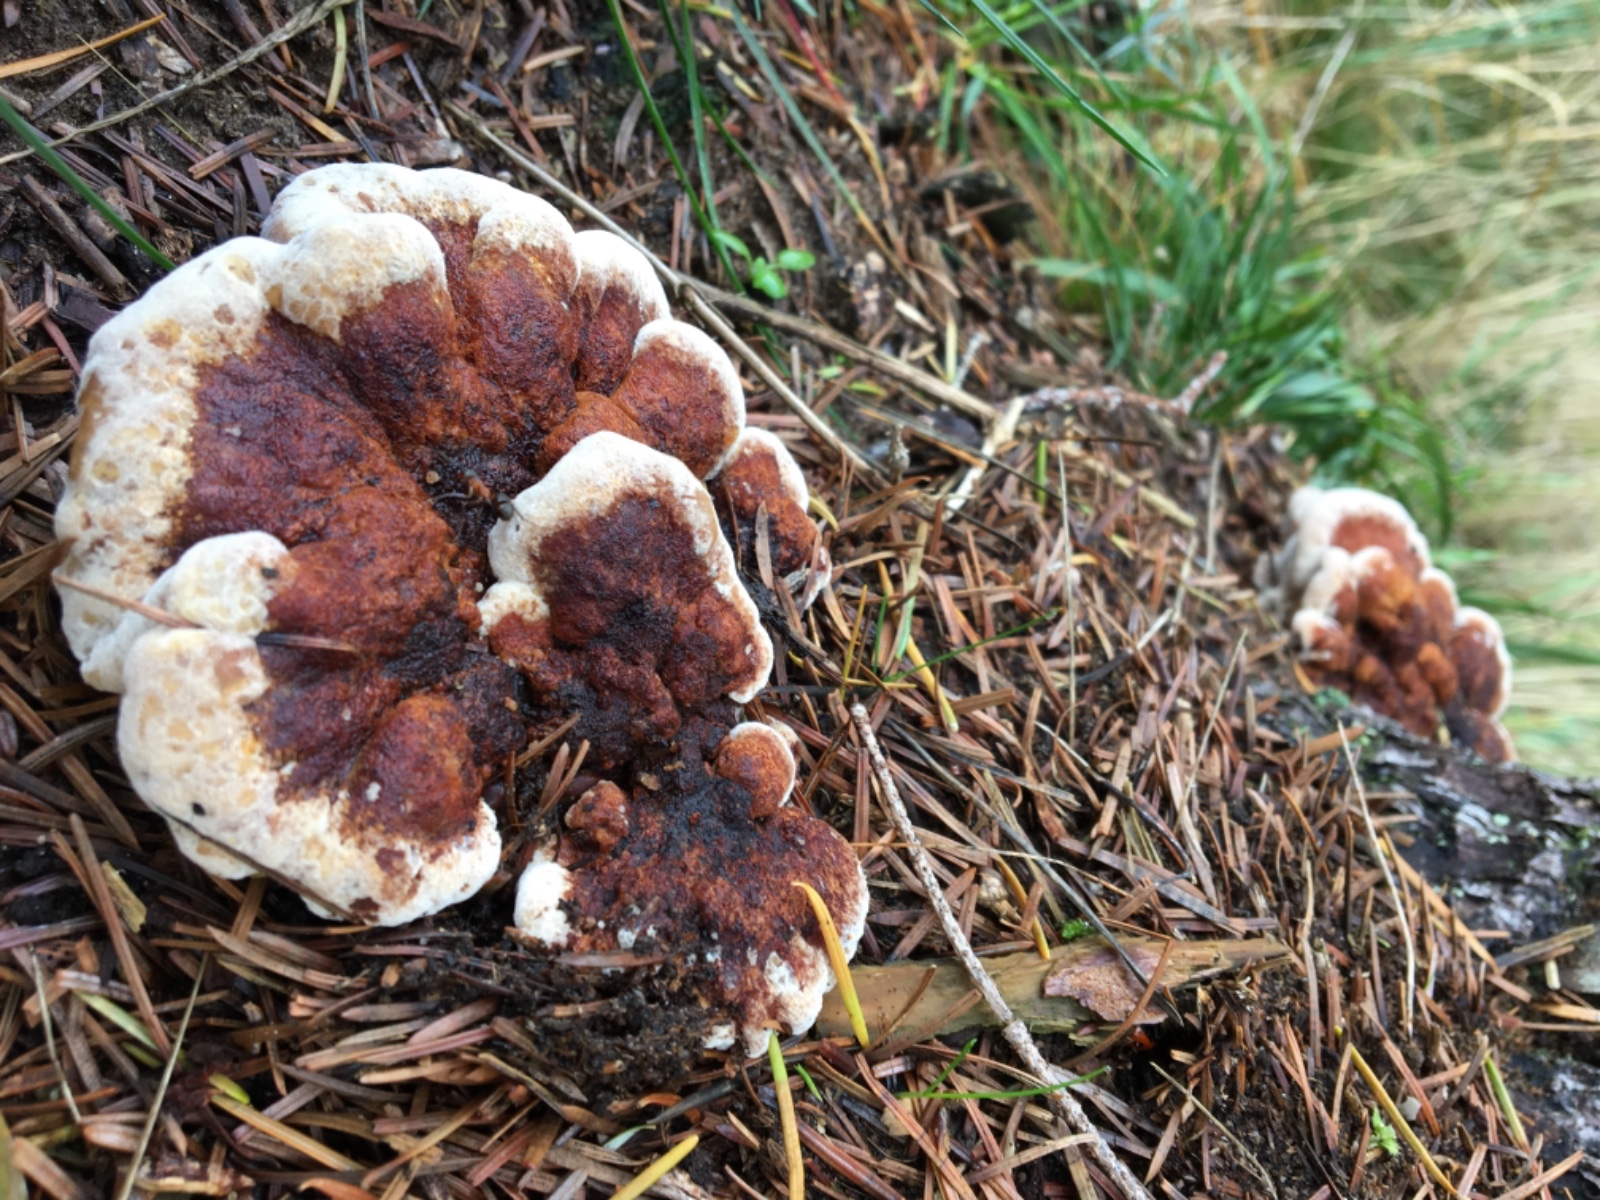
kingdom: Fungi
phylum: Basidiomycota
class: Agaricomycetes
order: Polyporales
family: Ischnodermataceae
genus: Ischnoderma
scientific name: Ischnoderma benzoinum
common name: gran-tjæreporesvamp
